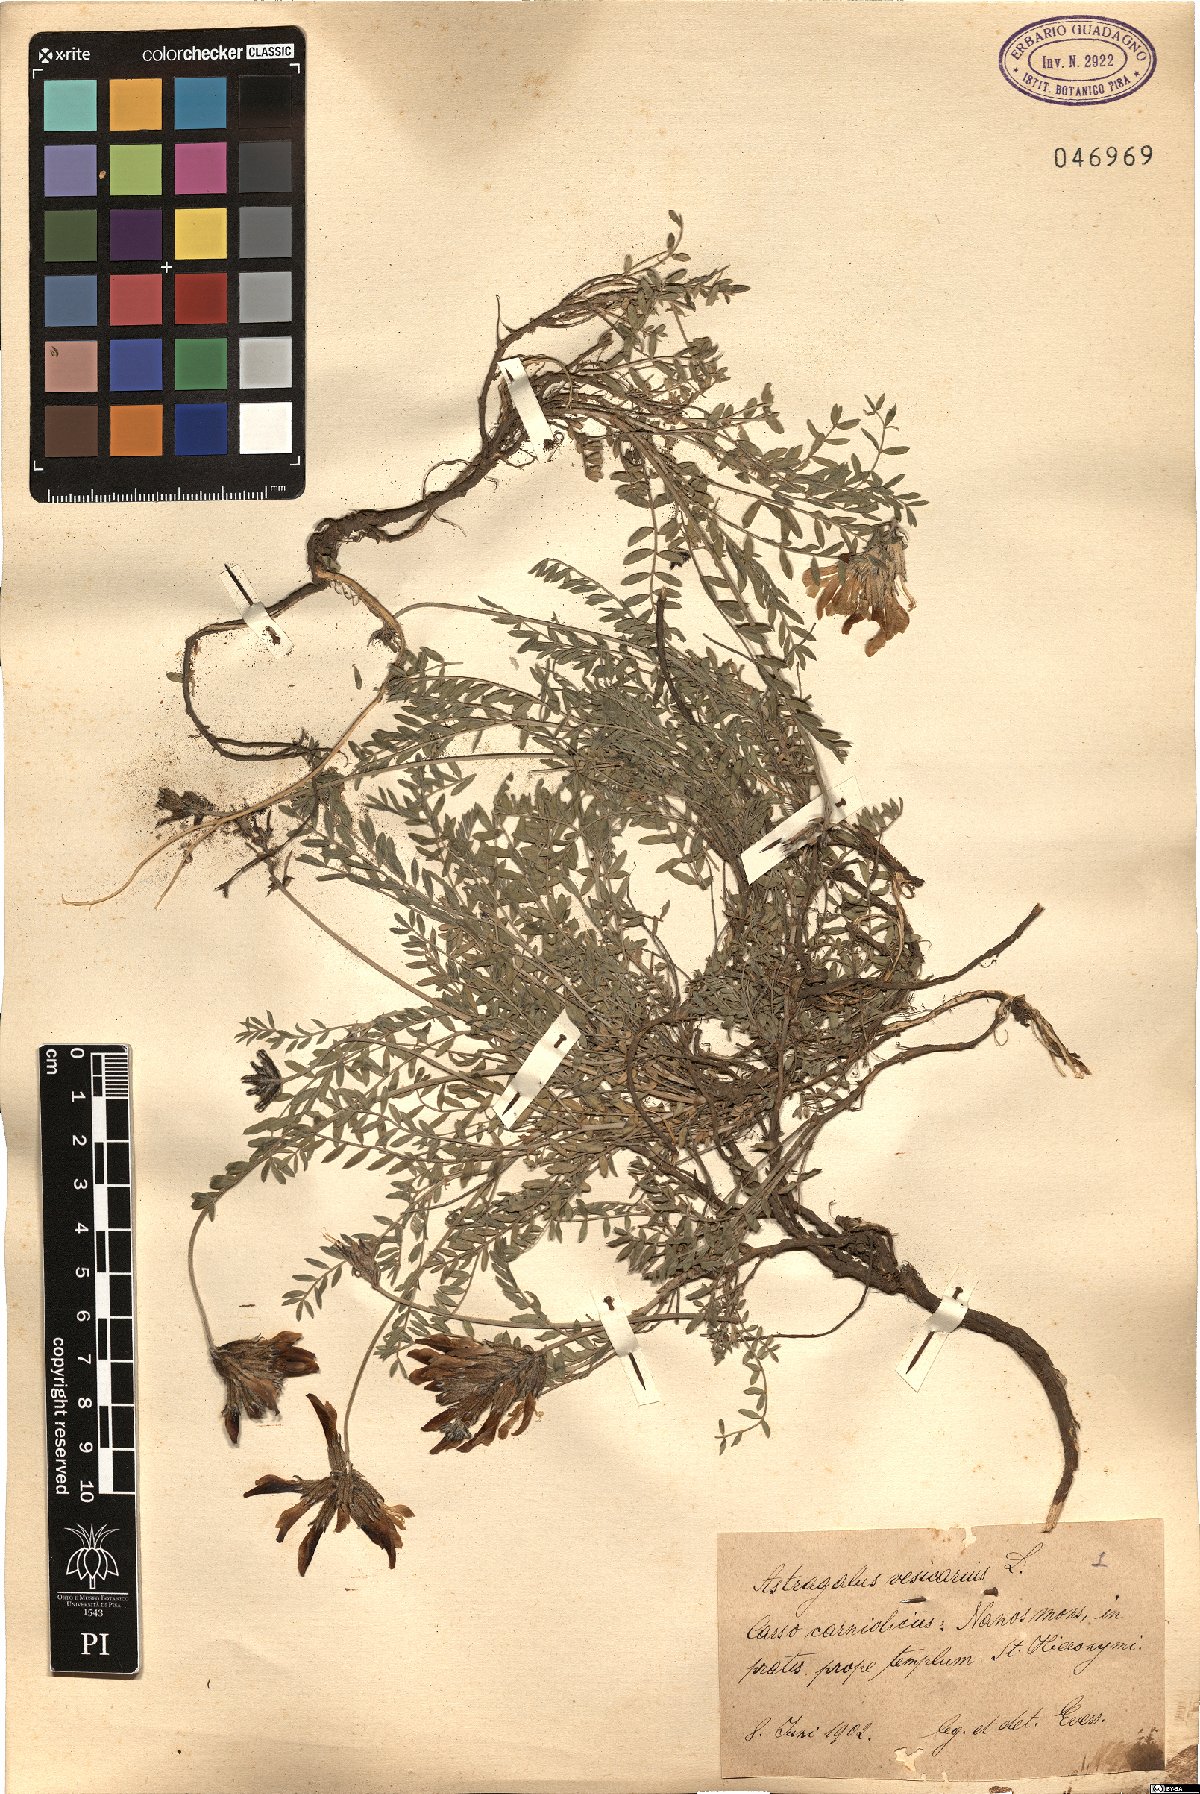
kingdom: Plantae
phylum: Tracheophyta
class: Magnoliopsida
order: Fabales
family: Fabaceae
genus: Astragalus
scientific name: Astragalus vesicarius
